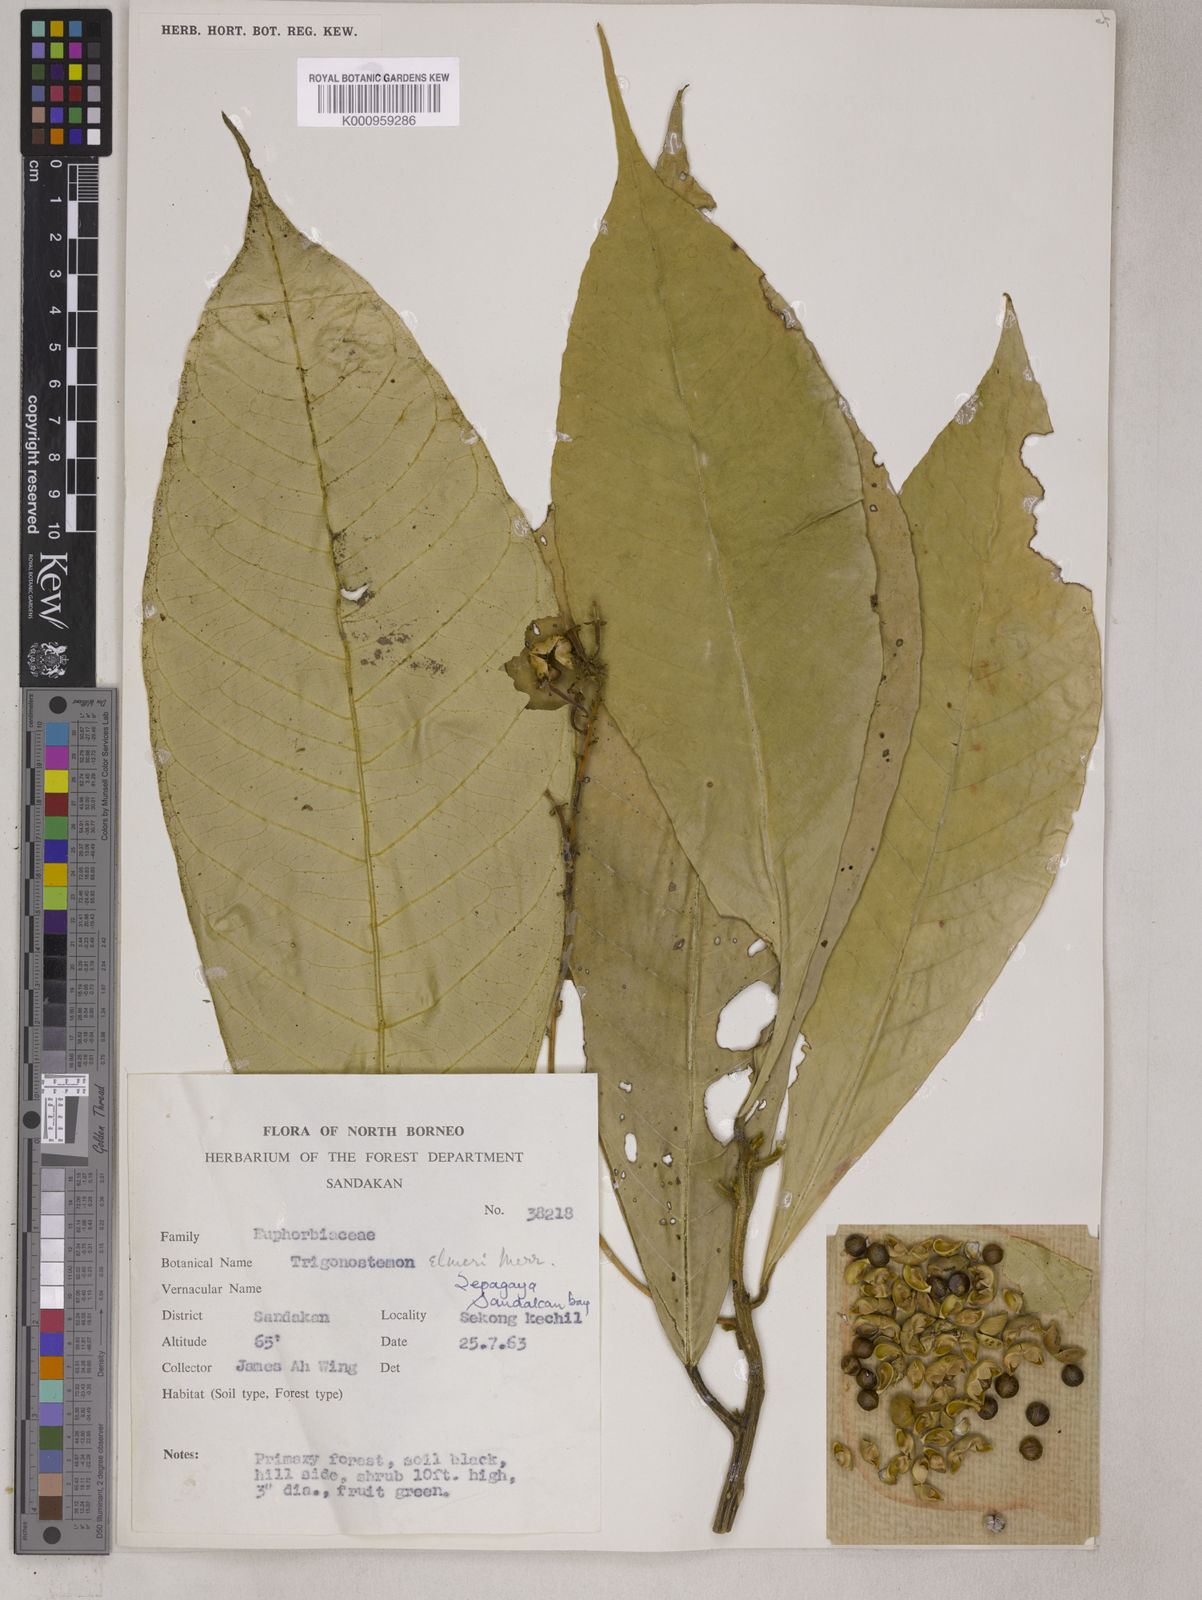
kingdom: Plantae
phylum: Tracheophyta
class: Magnoliopsida
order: Malpighiales
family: Euphorbiaceae
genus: Trigonostemon
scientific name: Trigonostemon longifolius
